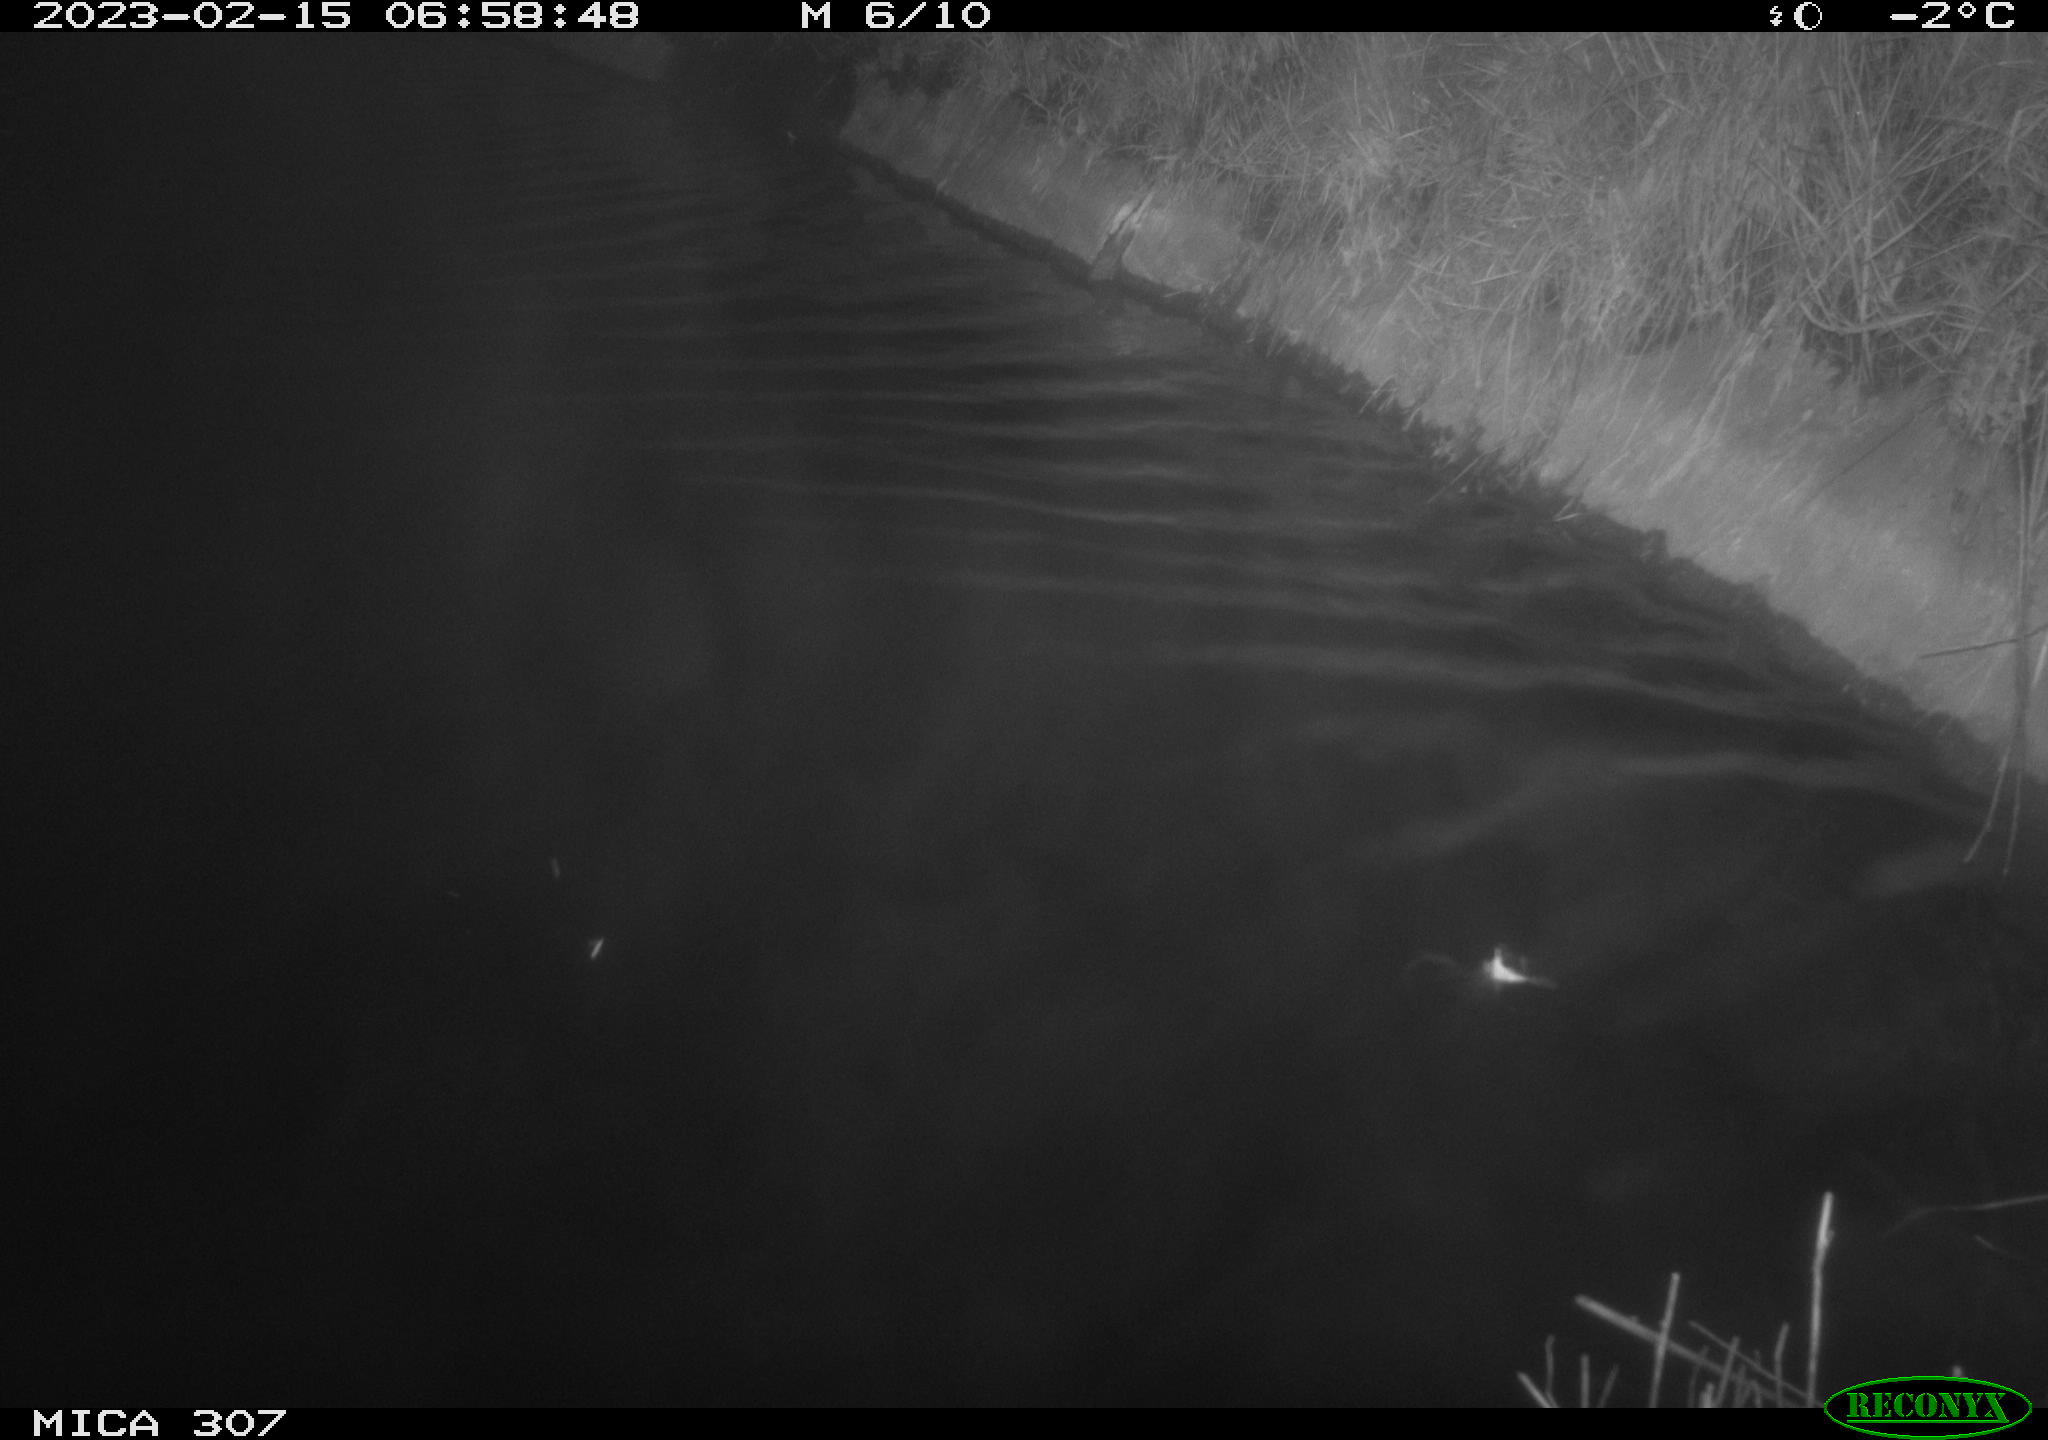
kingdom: Animalia
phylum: Chordata
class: Aves
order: Anseriformes
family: Anatidae
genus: Anas
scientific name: Anas
